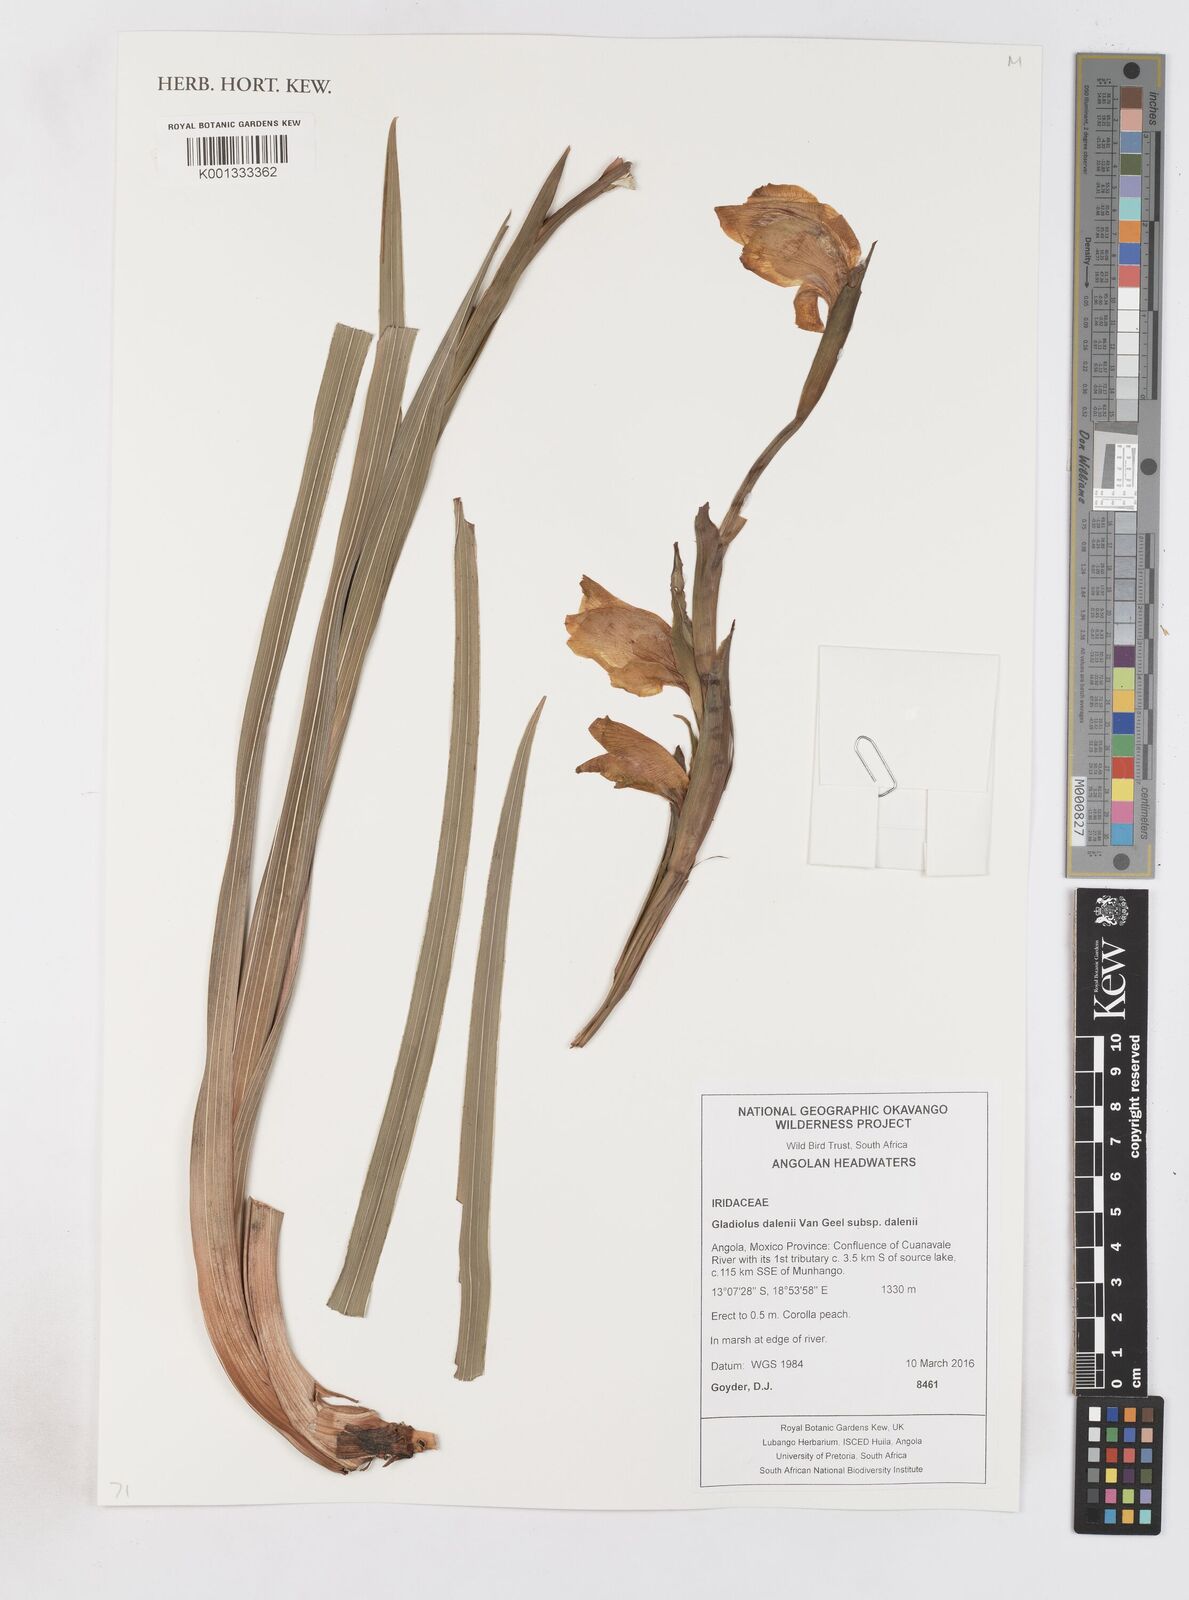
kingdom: Plantae
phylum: Tracheophyta
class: Liliopsida
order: Asparagales
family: Iridaceae
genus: Gladiolus
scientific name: Gladiolus dalenii
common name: Cornflag
